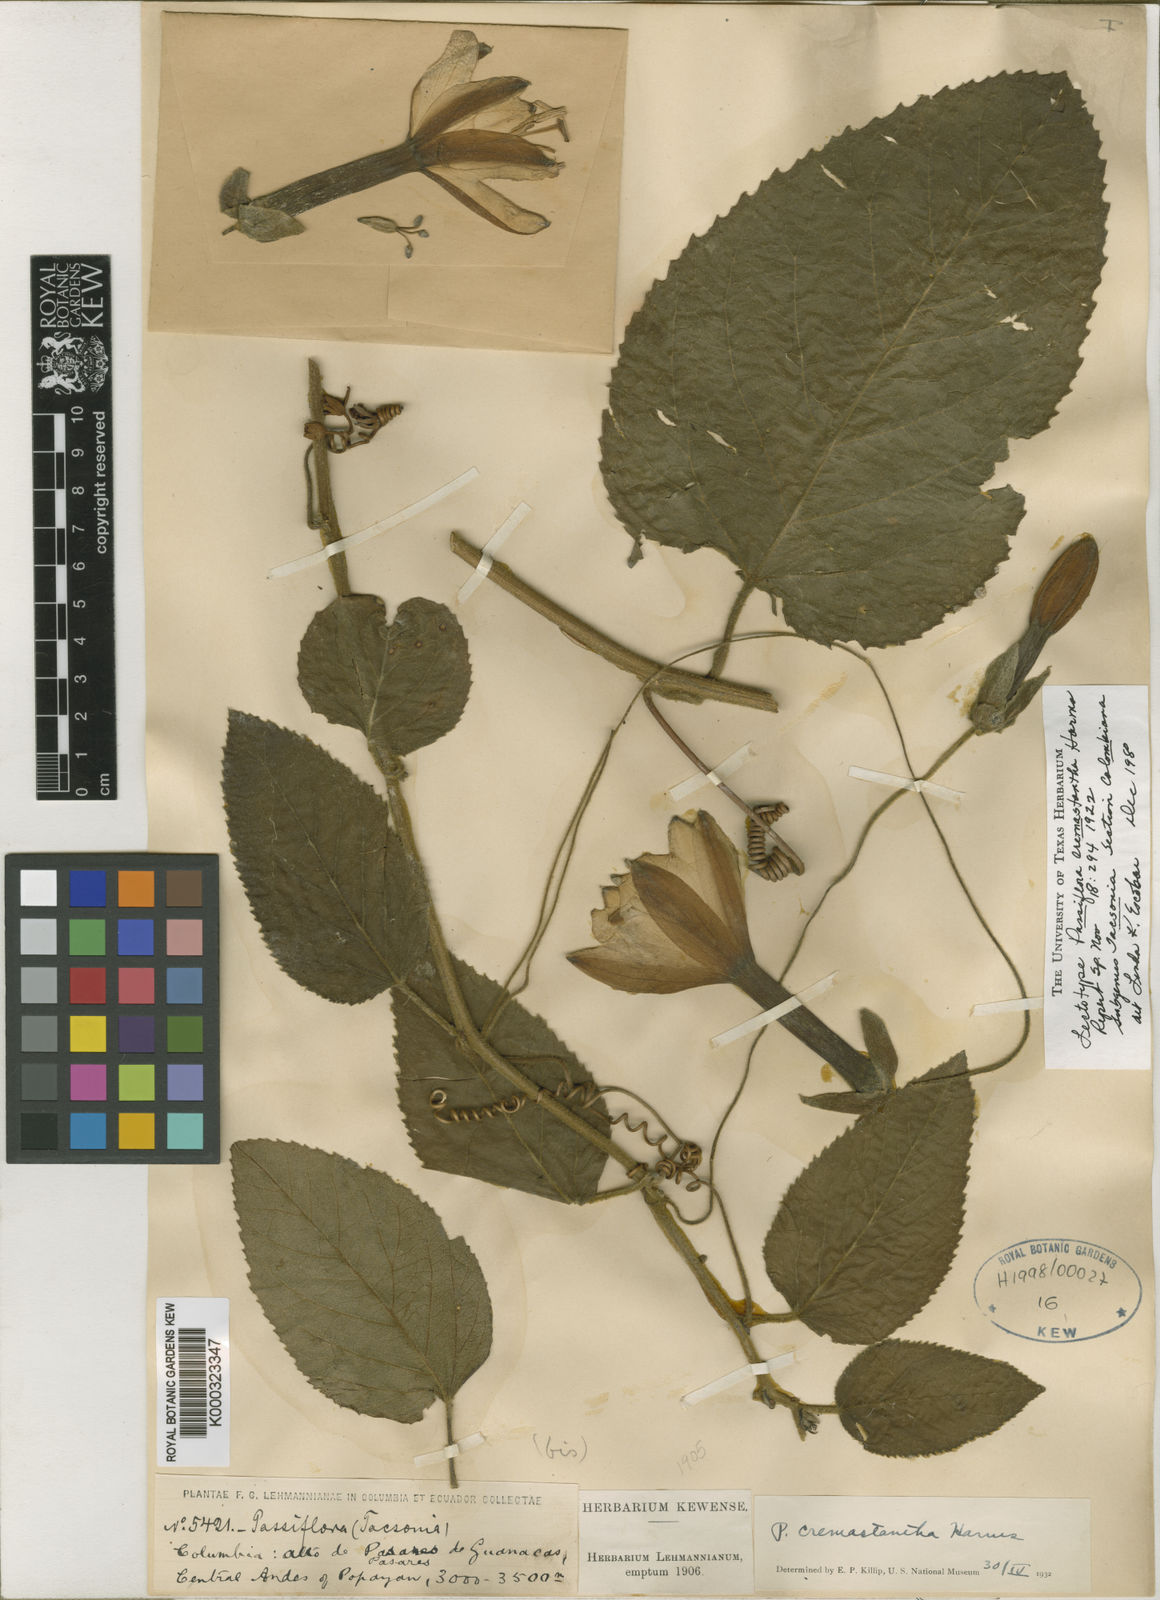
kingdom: Plantae
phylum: Tracheophyta
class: Magnoliopsida
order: Malpighiales
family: Passifloraceae
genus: Passiflora
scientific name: Passiflora cremastantha
